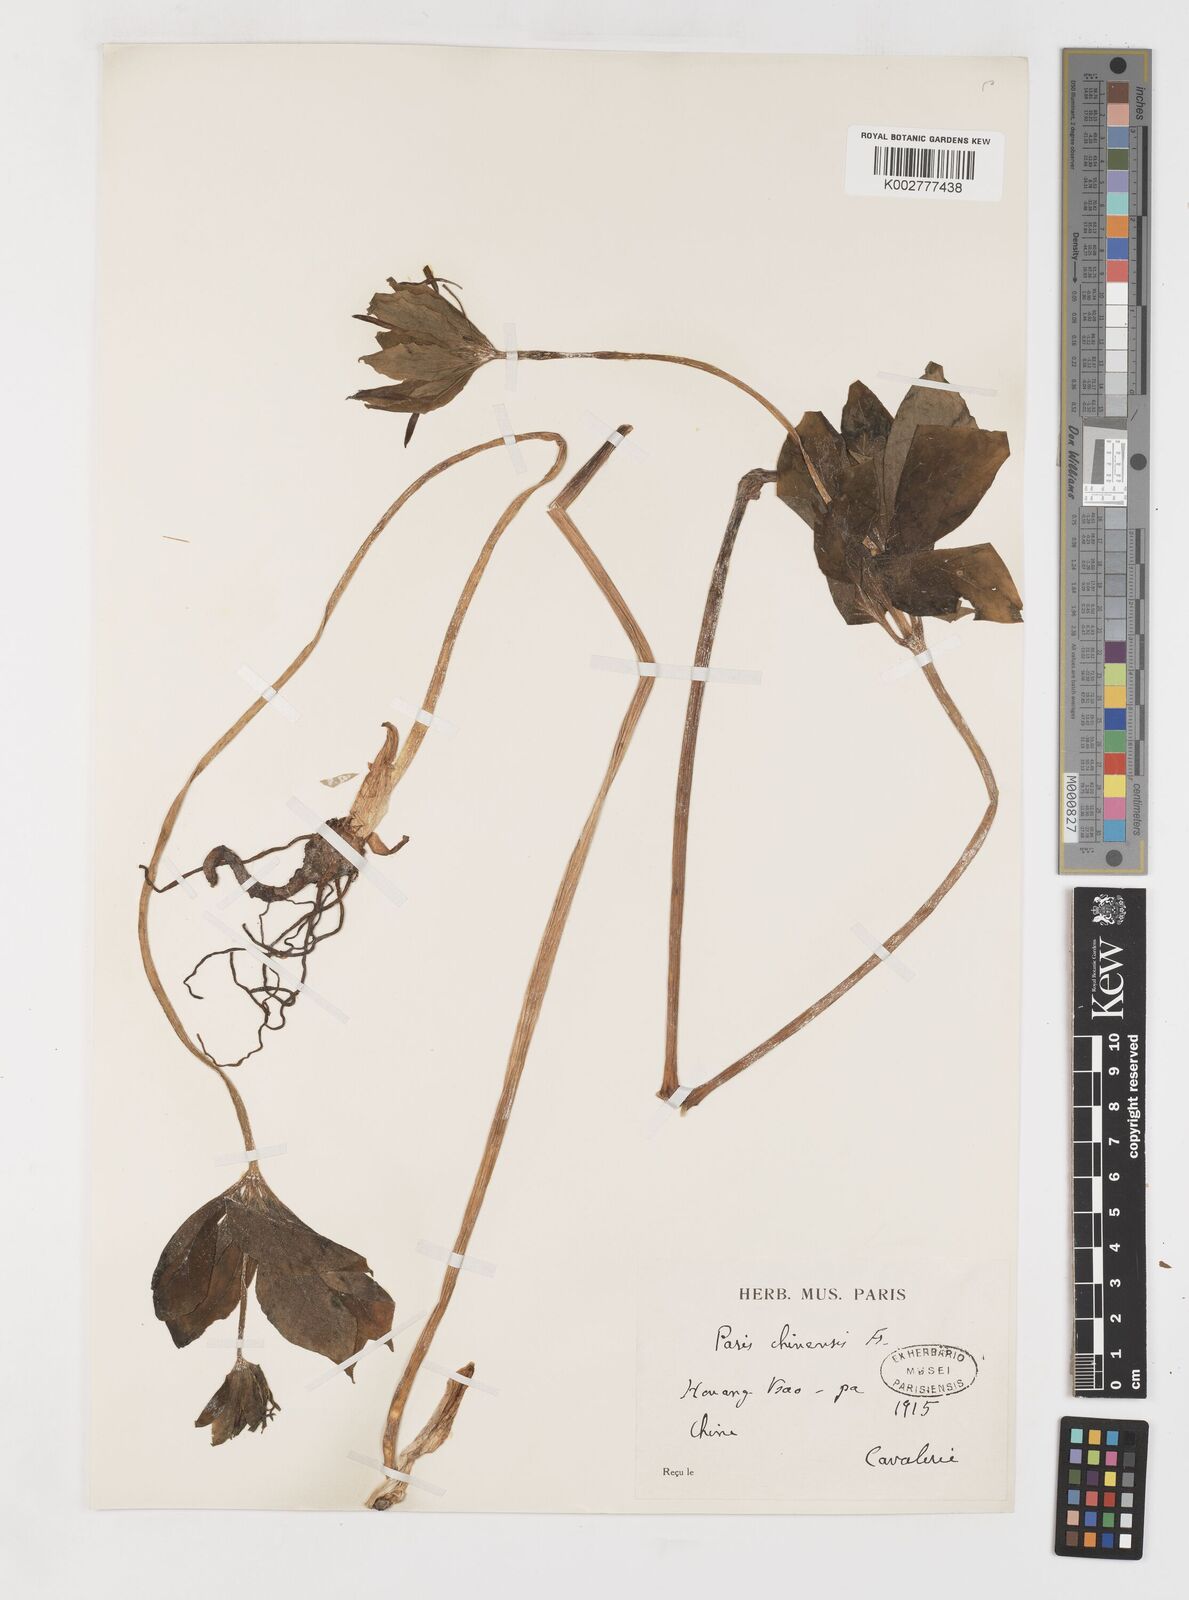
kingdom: Plantae
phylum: Tracheophyta
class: Liliopsida
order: Liliales
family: Melanthiaceae
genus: Paris
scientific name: Paris chinensis
